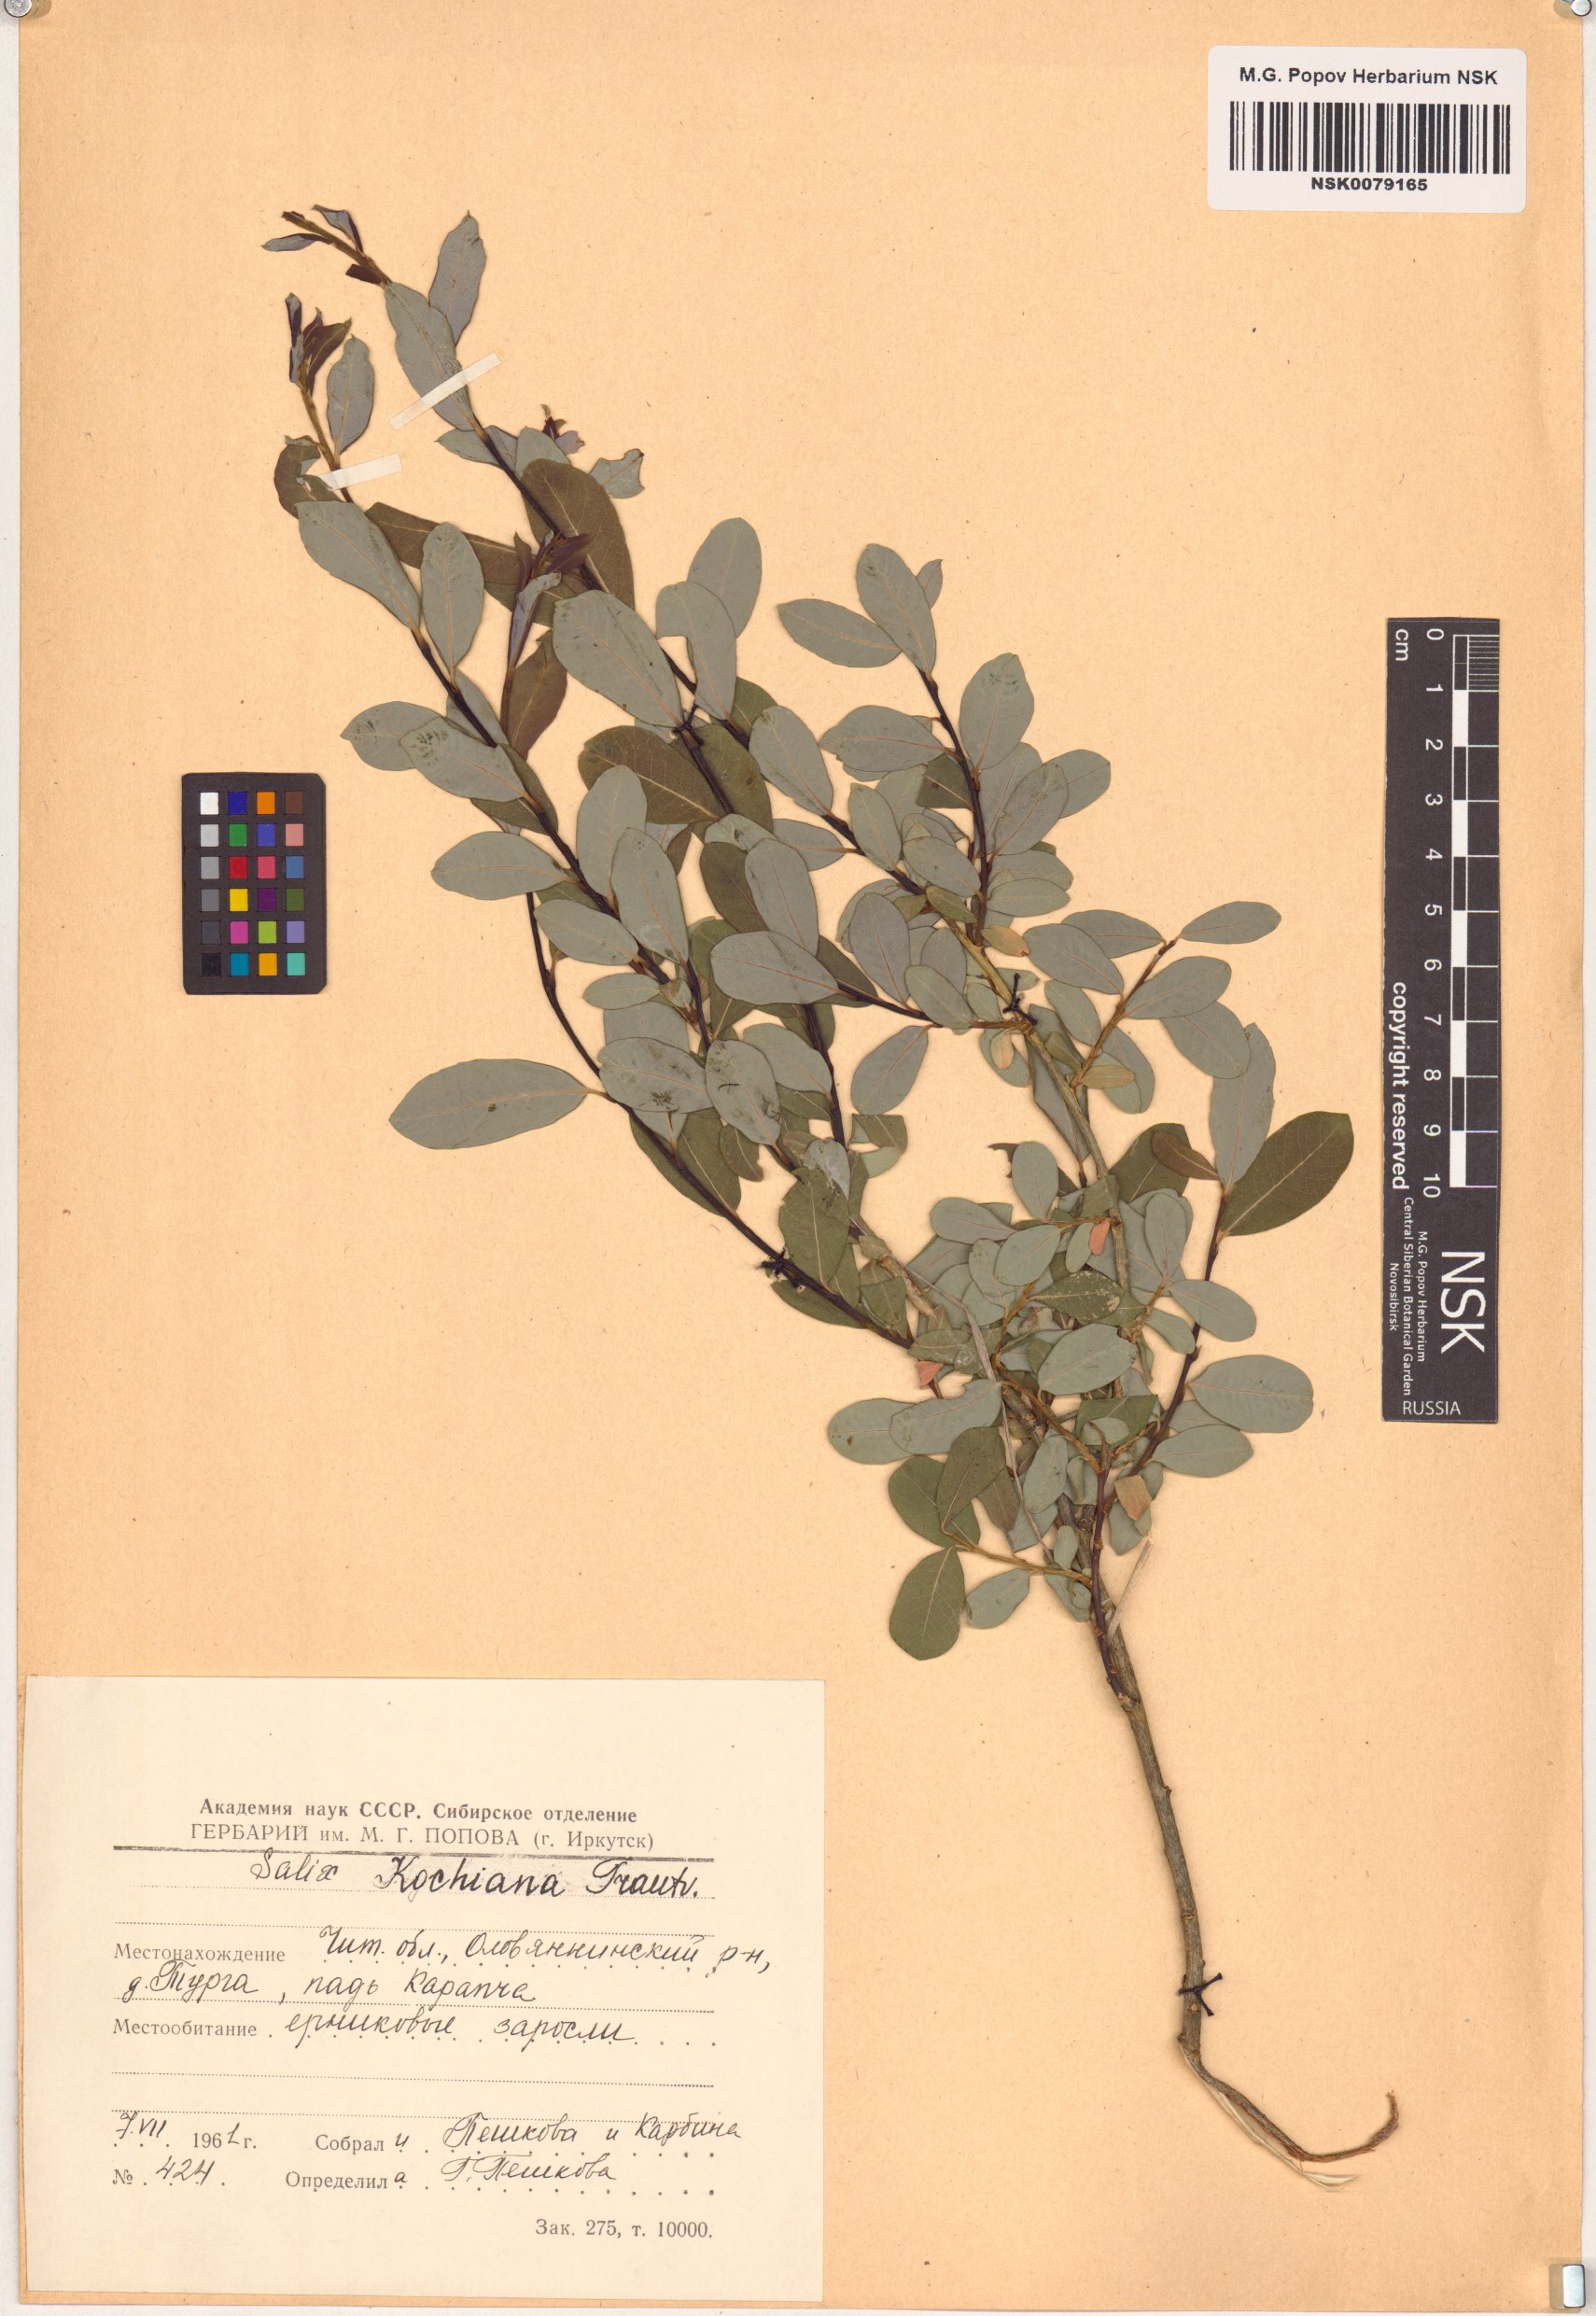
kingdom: Plantae
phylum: Tracheophyta
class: Magnoliopsida
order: Malpighiales
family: Salicaceae
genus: Salix
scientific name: Salix kochiana
